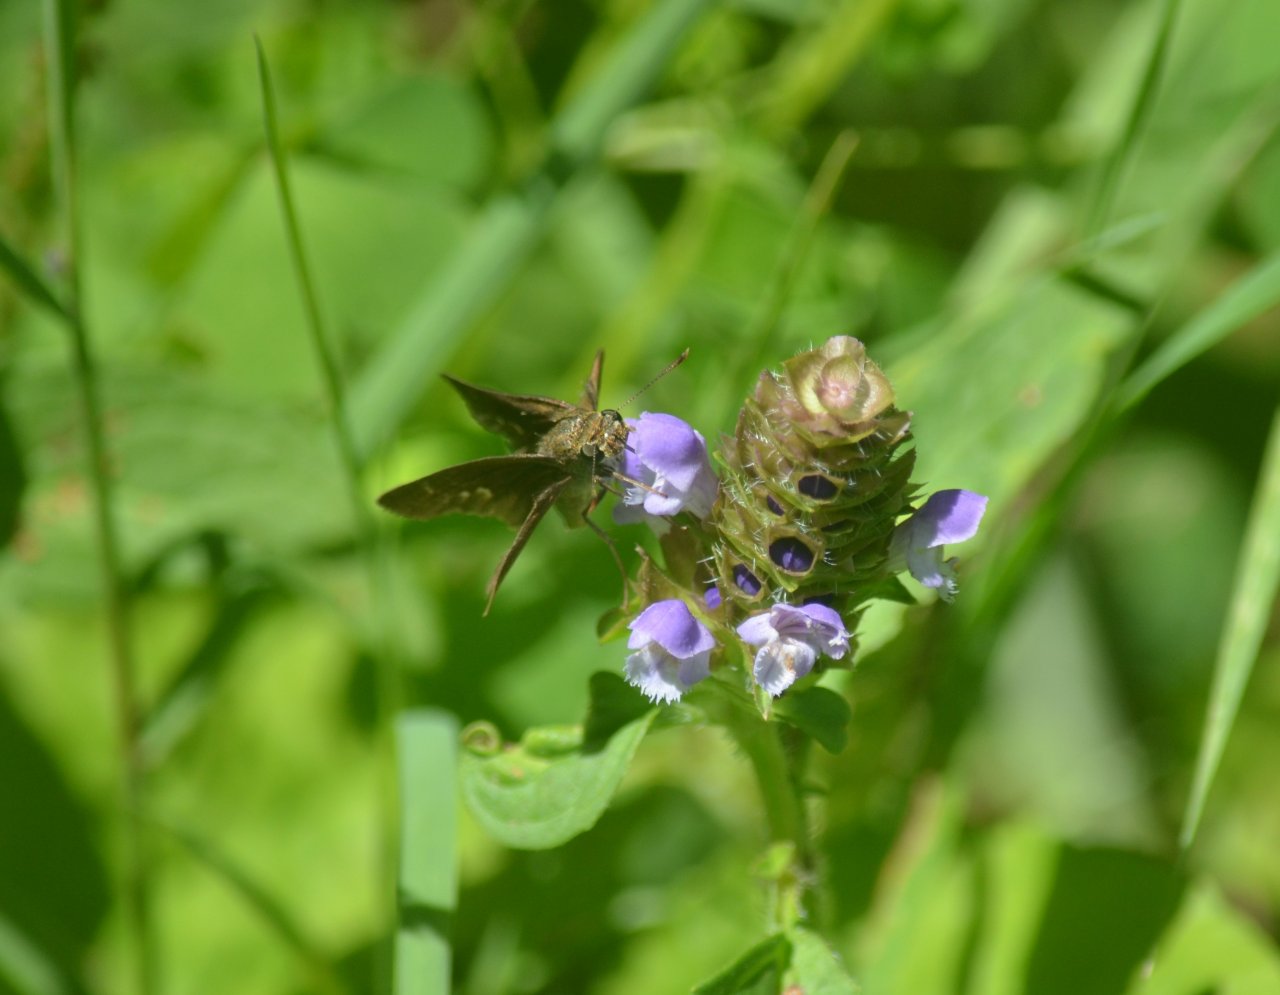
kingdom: Animalia
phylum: Arthropoda
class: Insecta
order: Lepidoptera
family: Hesperiidae
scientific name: Hesperiidae
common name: Skippers
